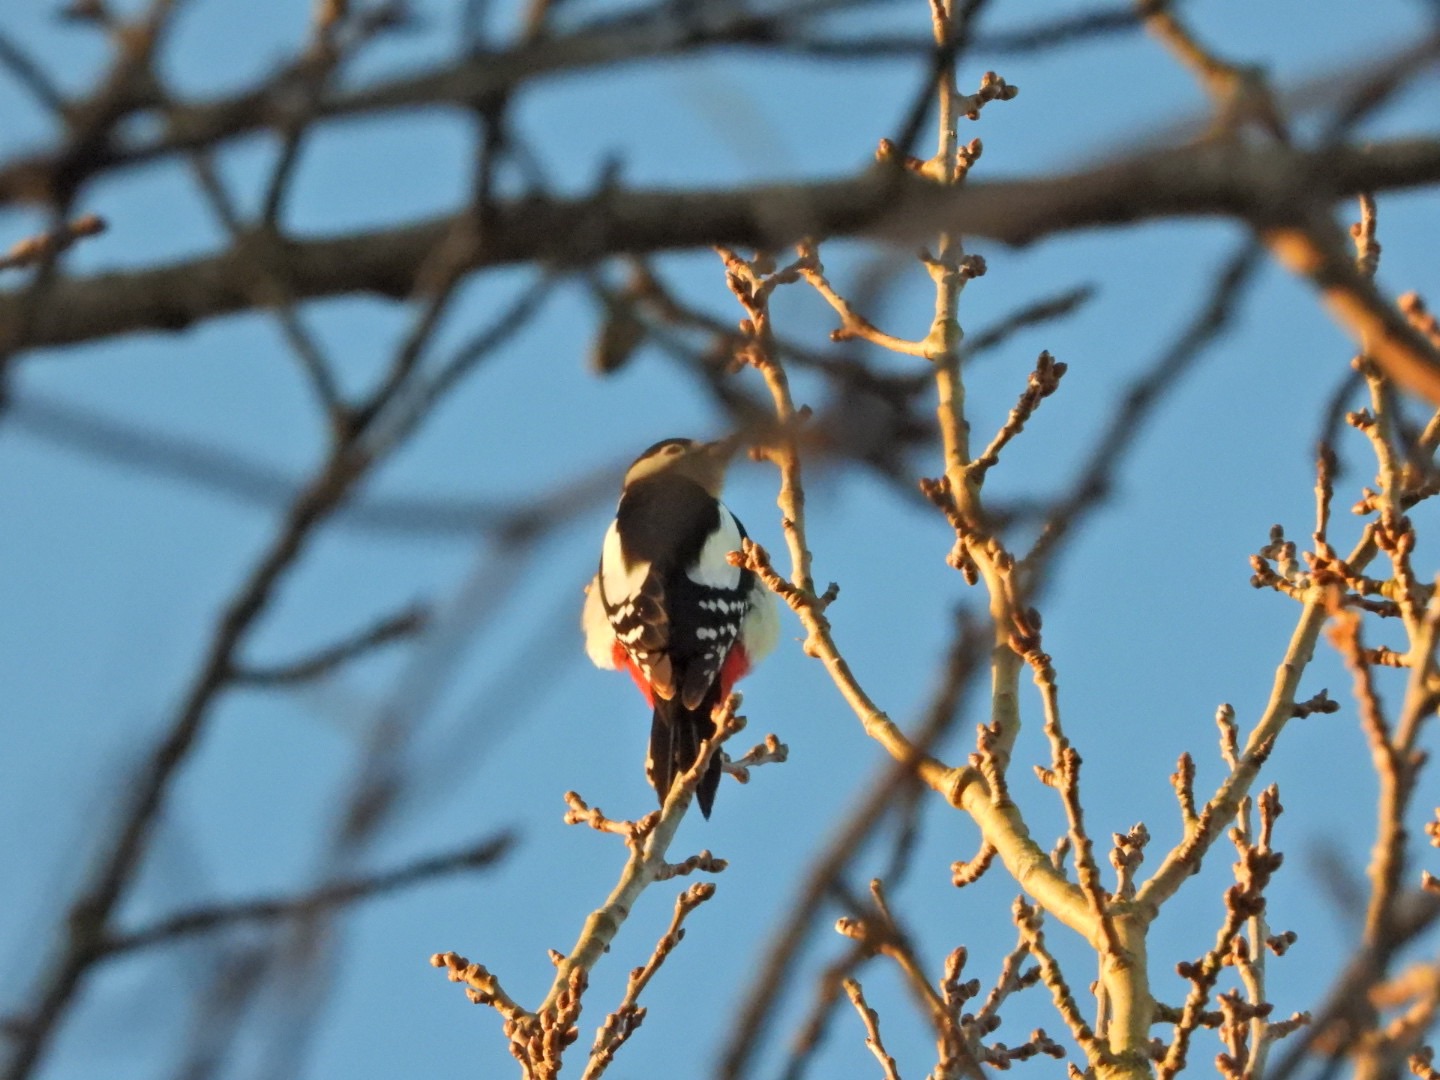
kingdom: Animalia
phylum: Chordata
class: Aves
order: Piciformes
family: Picidae
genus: Dendrocopos
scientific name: Dendrocopos major
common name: Stor flagspætte
